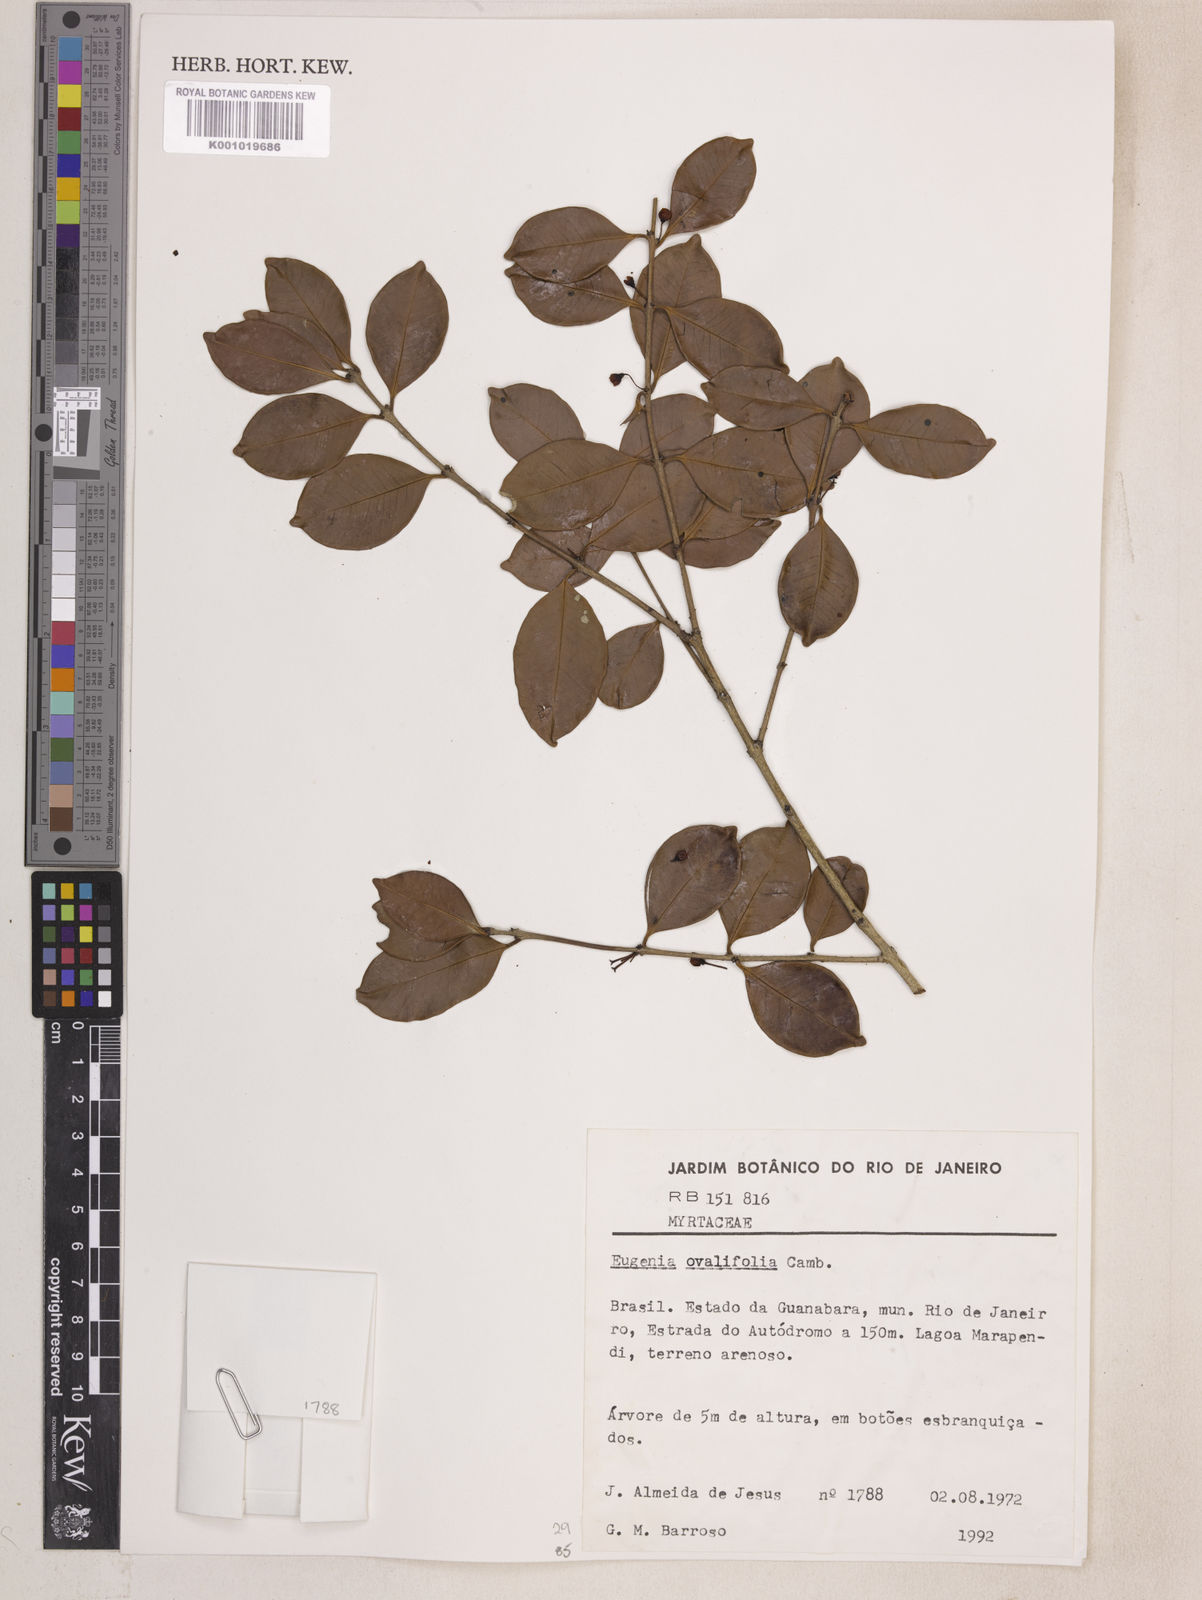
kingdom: Plantae
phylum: Tracheophyta
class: Magnoliopsida
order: Myrtales
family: Myrtaceae
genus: Eugenia
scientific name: Eugenia punicifolia
